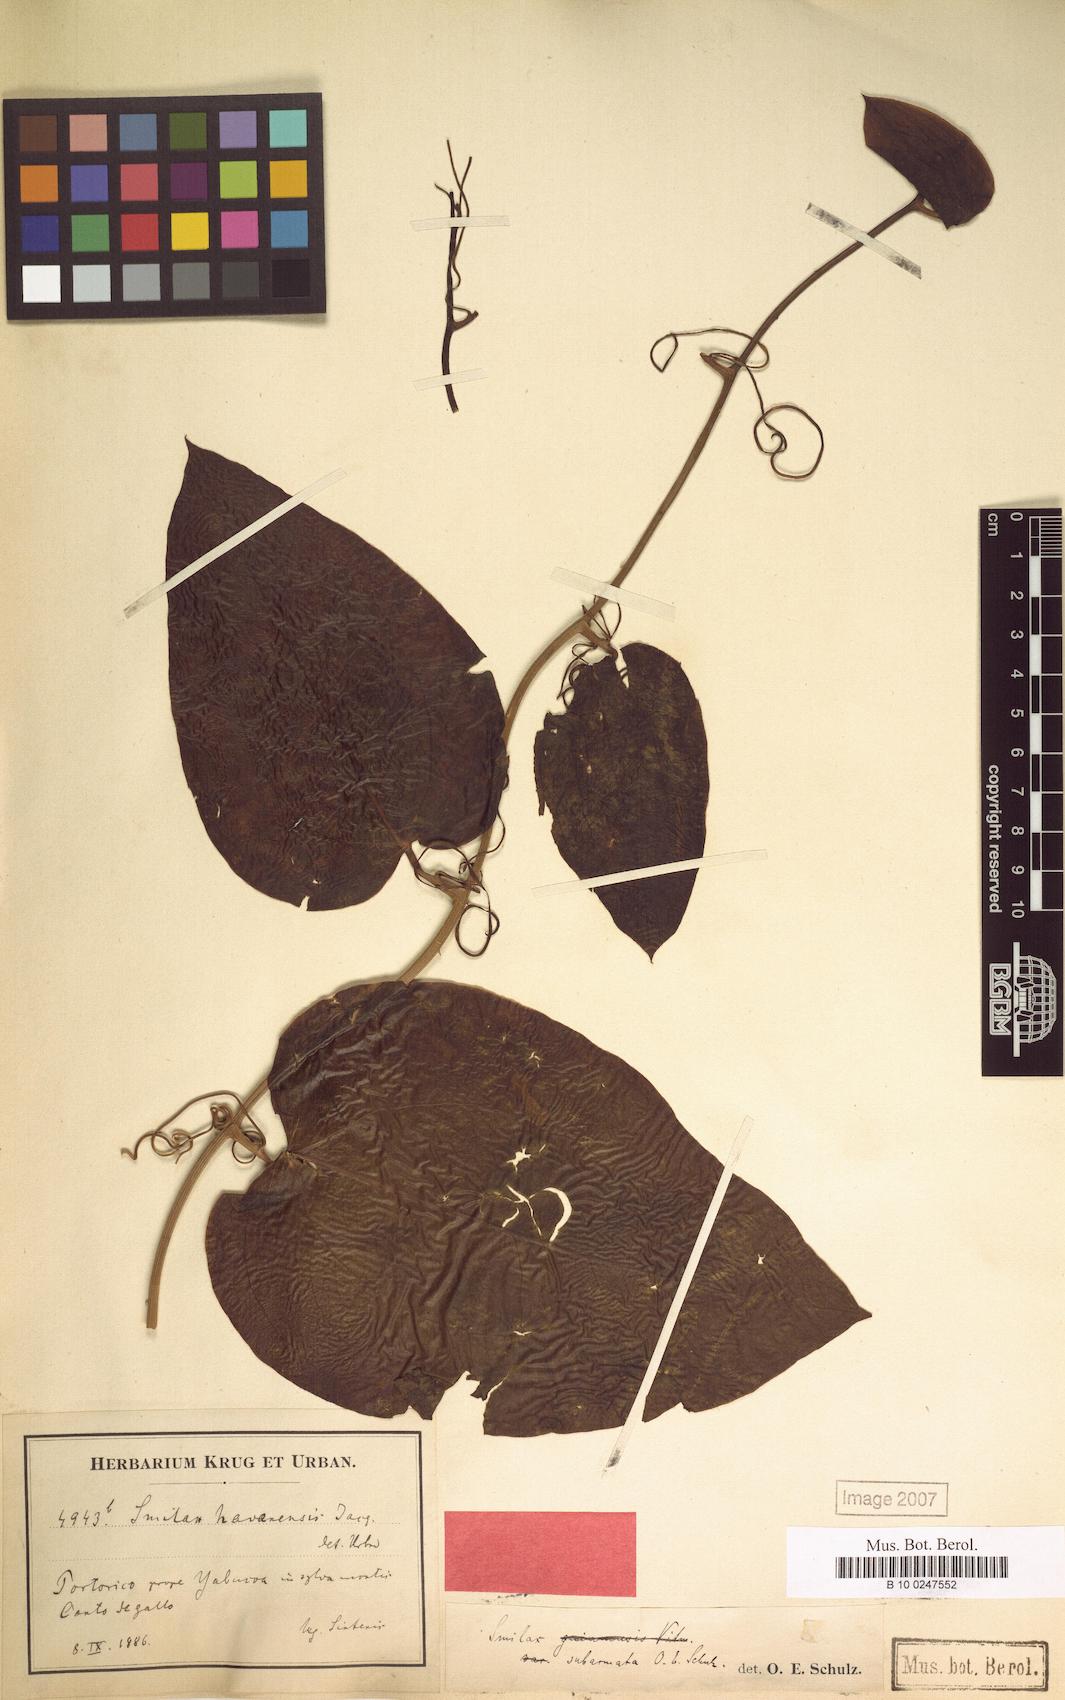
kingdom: Plantae
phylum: Tracheophyta
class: Liliopsida
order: Liliales
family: Smilacaceae
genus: Smilax
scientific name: Smilax guianensis
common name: Basket hoop
